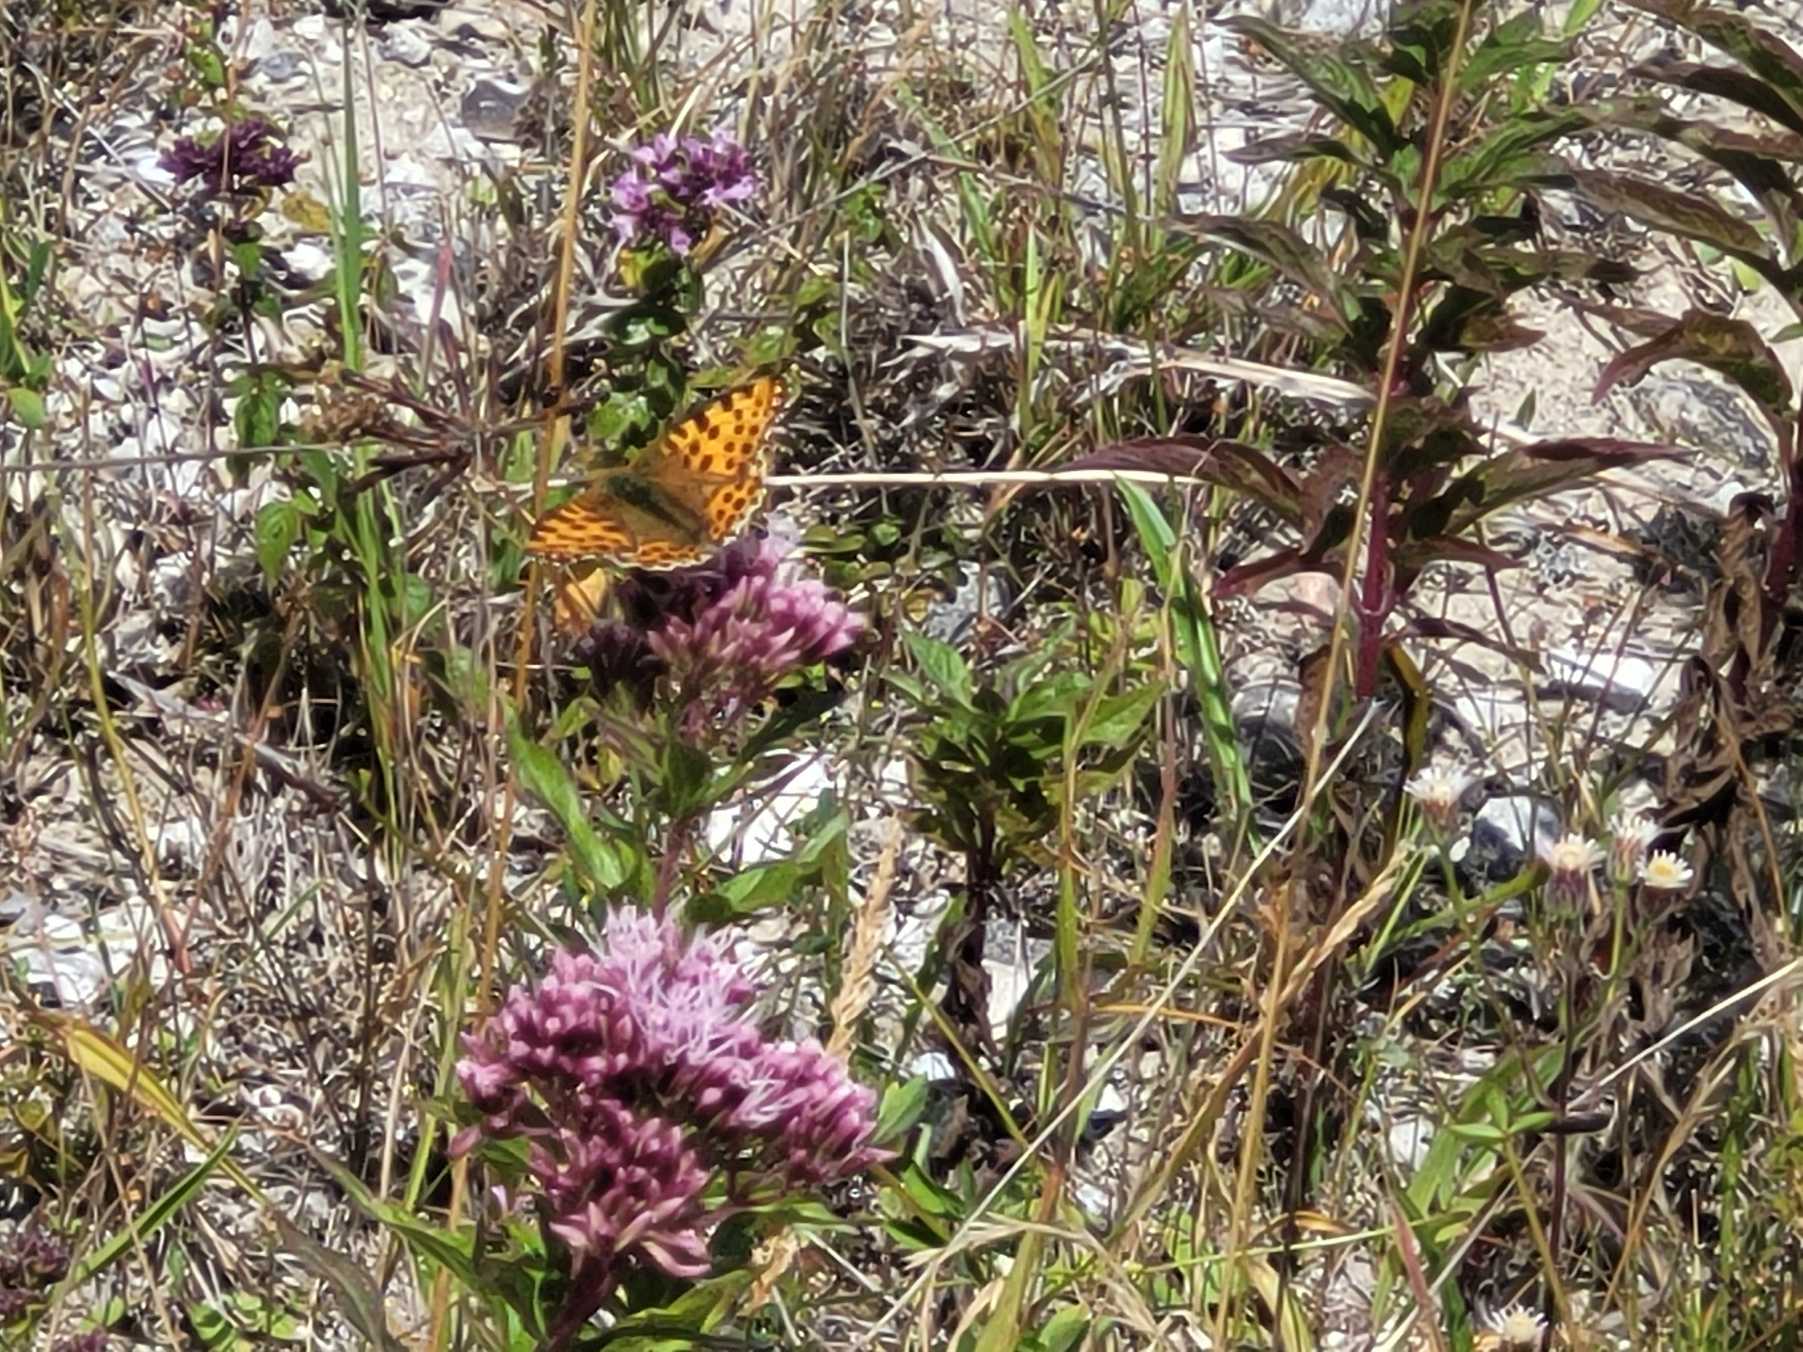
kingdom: Animalia
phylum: Arthropoda
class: Insecta
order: Lepidoptera
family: Nymphalidae
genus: Issoria
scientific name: Issoria lathonia
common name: Storplettet perlemorsommerfugl
